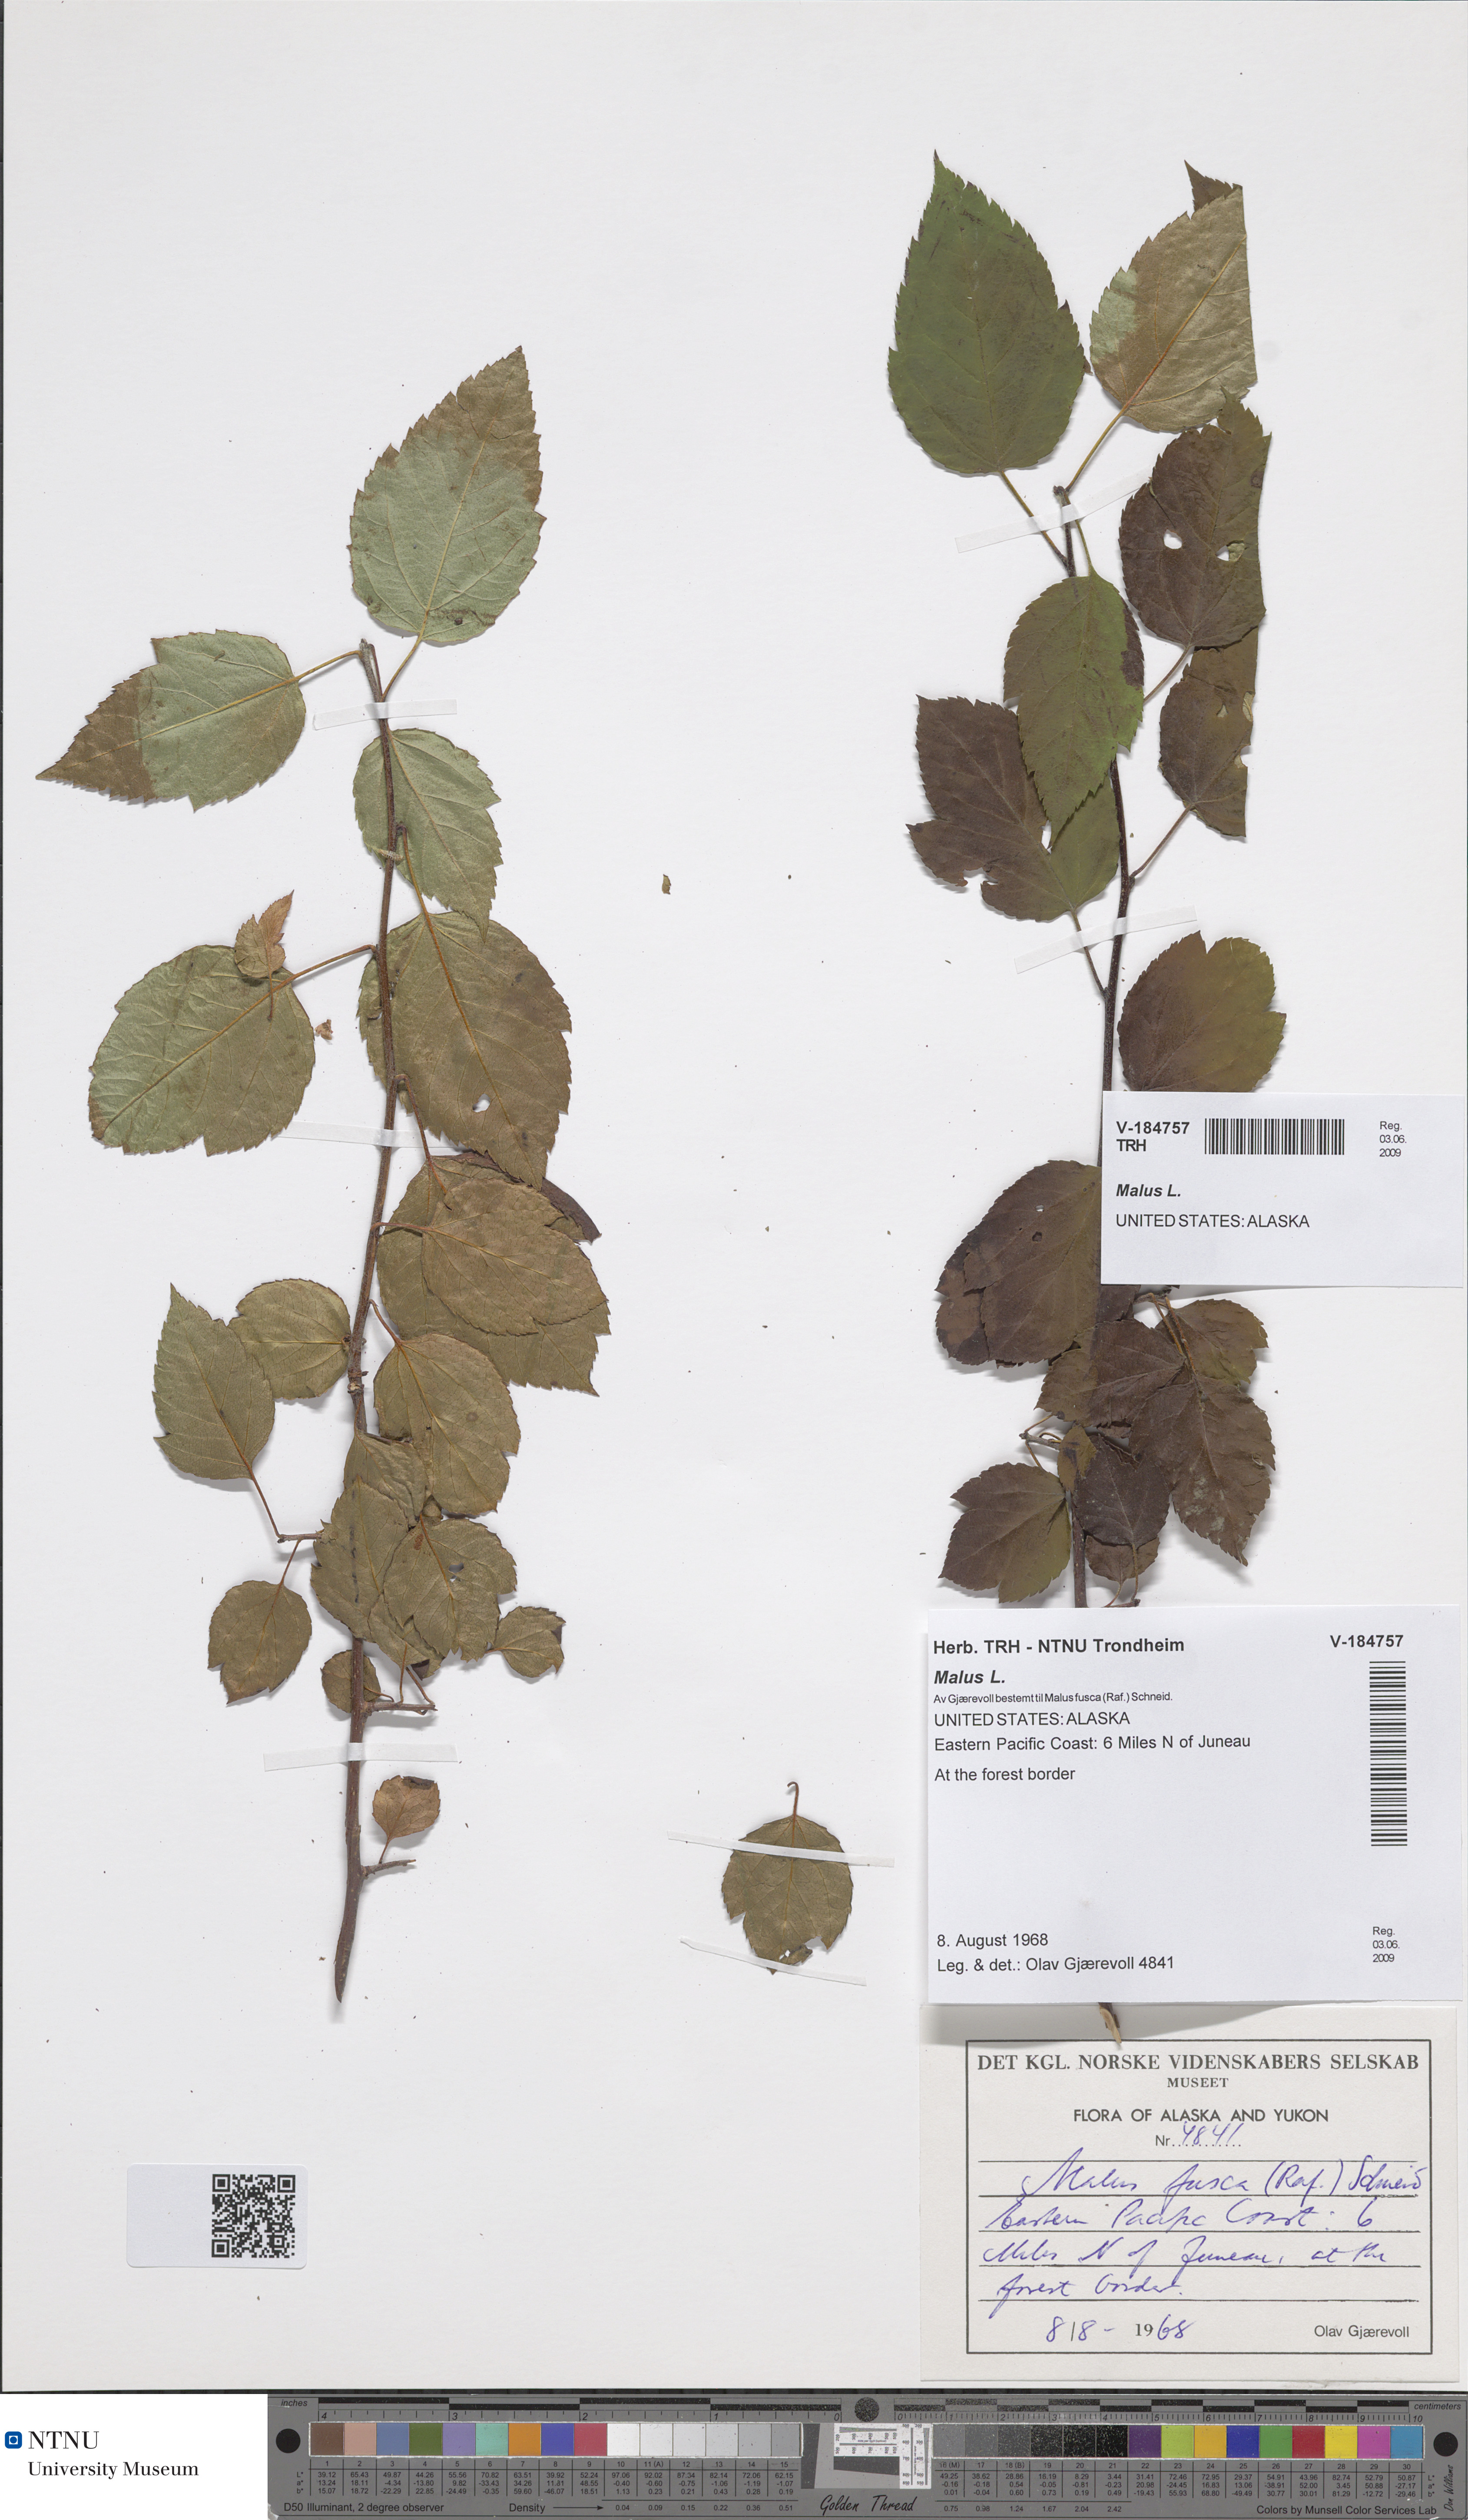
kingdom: Plantae
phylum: Tracheophyta
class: Magnoliopsida
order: Rosales
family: Rosaceae
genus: Malus
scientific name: Malus
